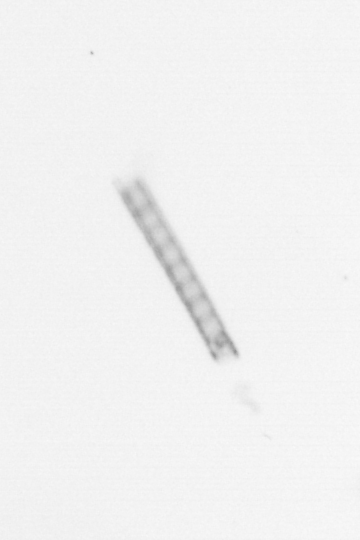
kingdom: Chromista
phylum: Ochrophyta
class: Bacillariophyceae
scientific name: Bacillariophyceae
